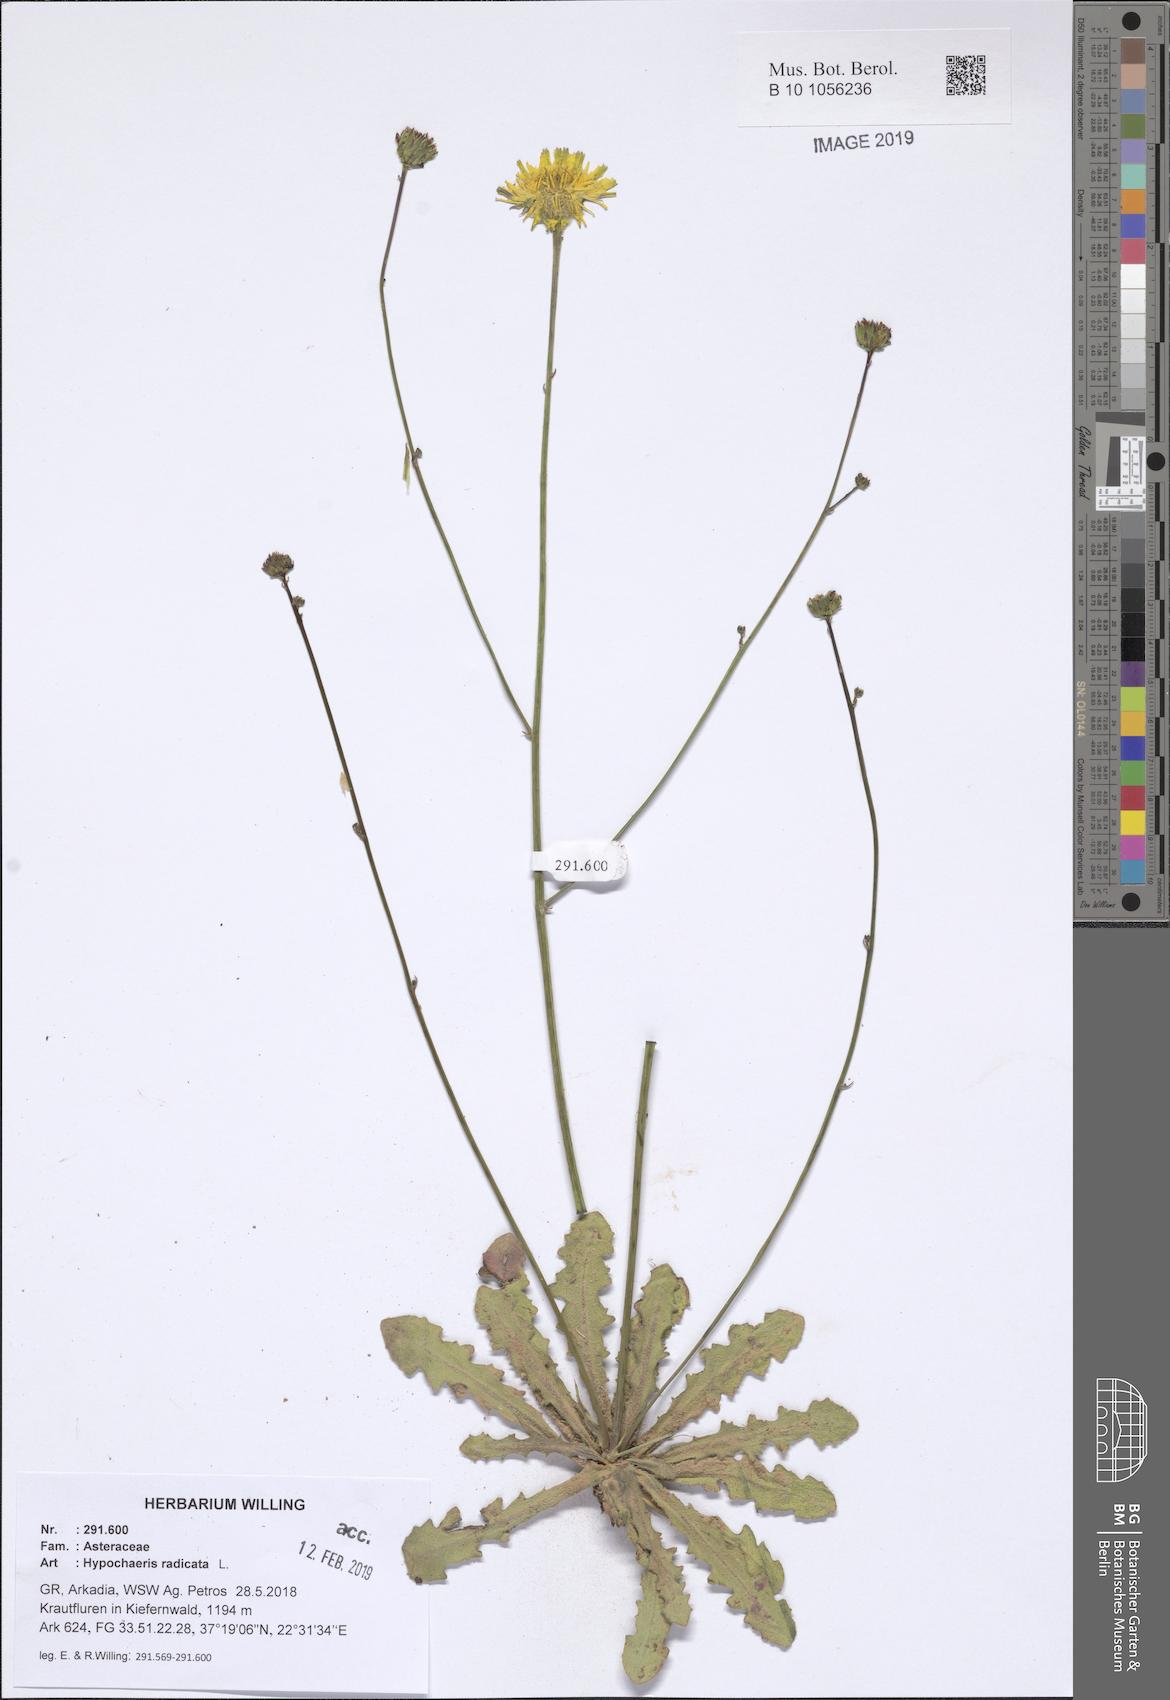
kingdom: Plantae
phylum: Tracheophyta
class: Magnoliopsida
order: Asterales
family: Asteraceae
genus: Hypochaeris
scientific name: Hypochaeris radicata
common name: Flatweed
